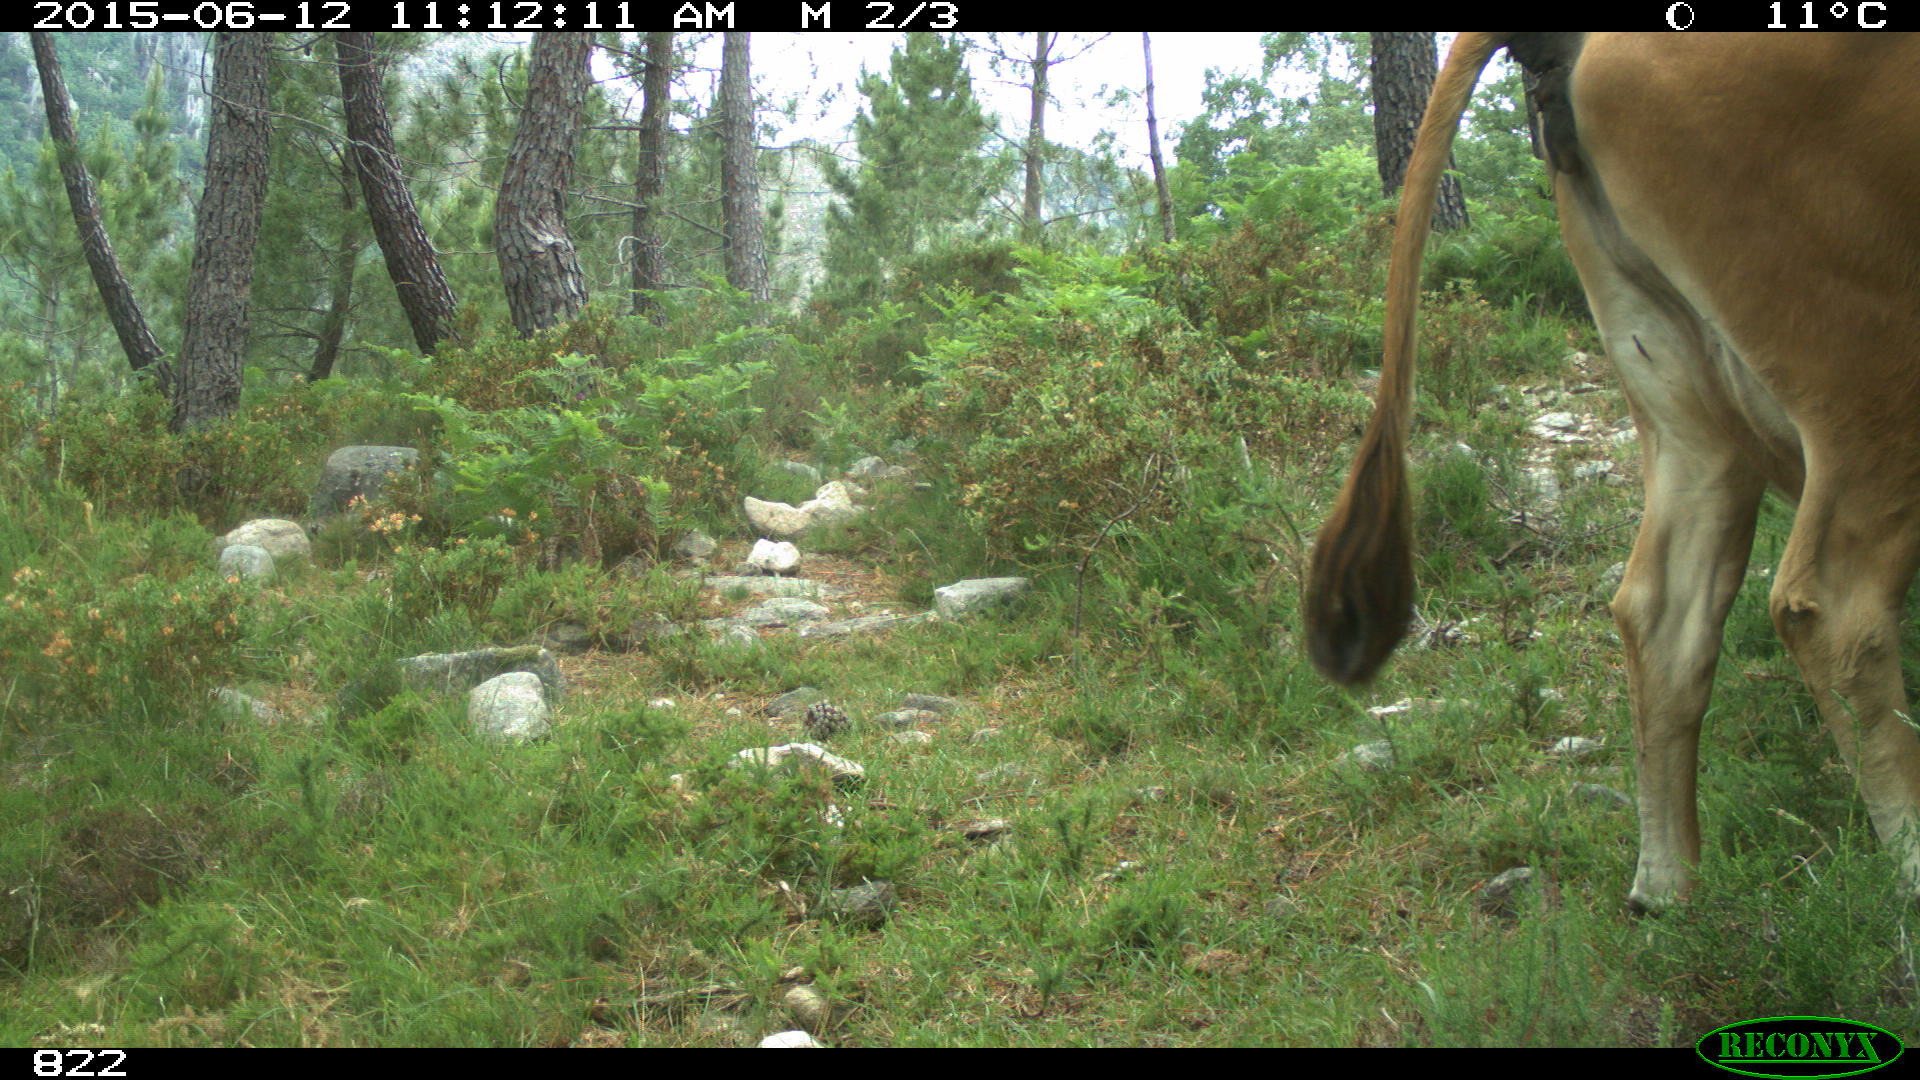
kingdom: Animalia
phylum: Chordata
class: Mammalia
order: Artiodactyla
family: Bovidae
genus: Bos
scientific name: Bos taurus
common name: Domesticated cattle
